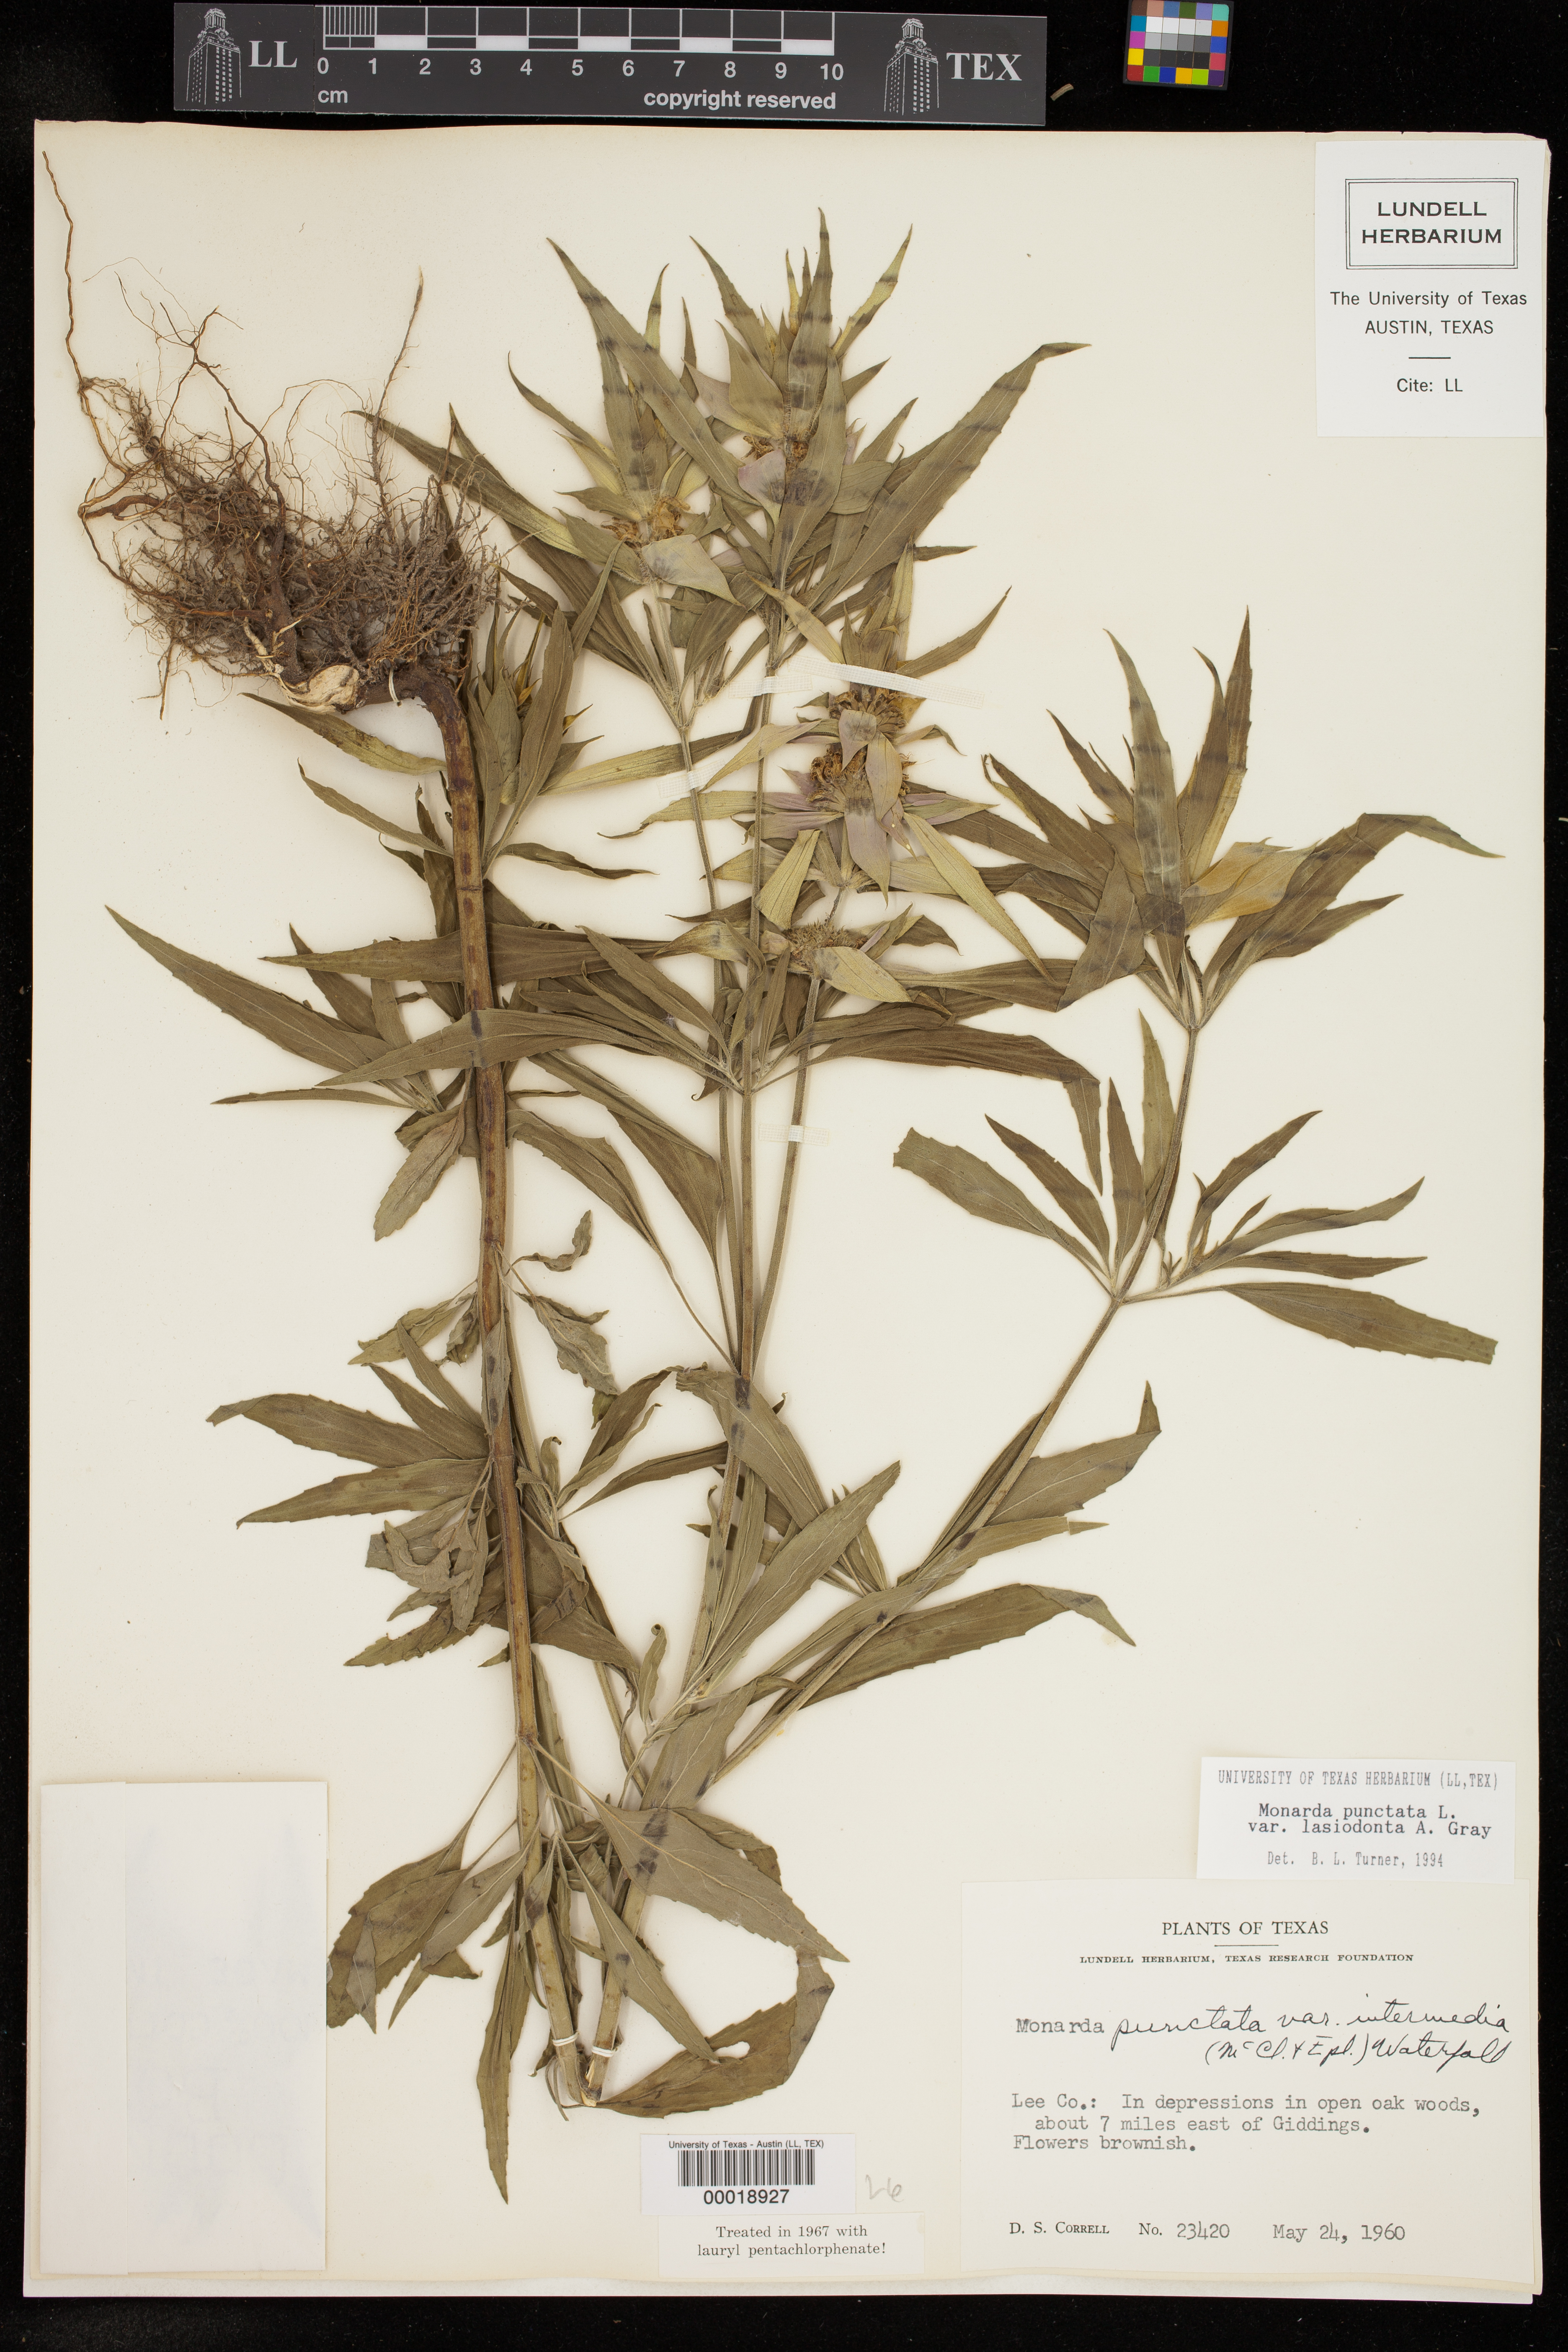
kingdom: Plantae
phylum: Tracheophyta
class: Magnoliopsida
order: Lamiales
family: Lamiaceae
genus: Monarda
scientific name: Monarda punctata
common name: Dotted monarda
